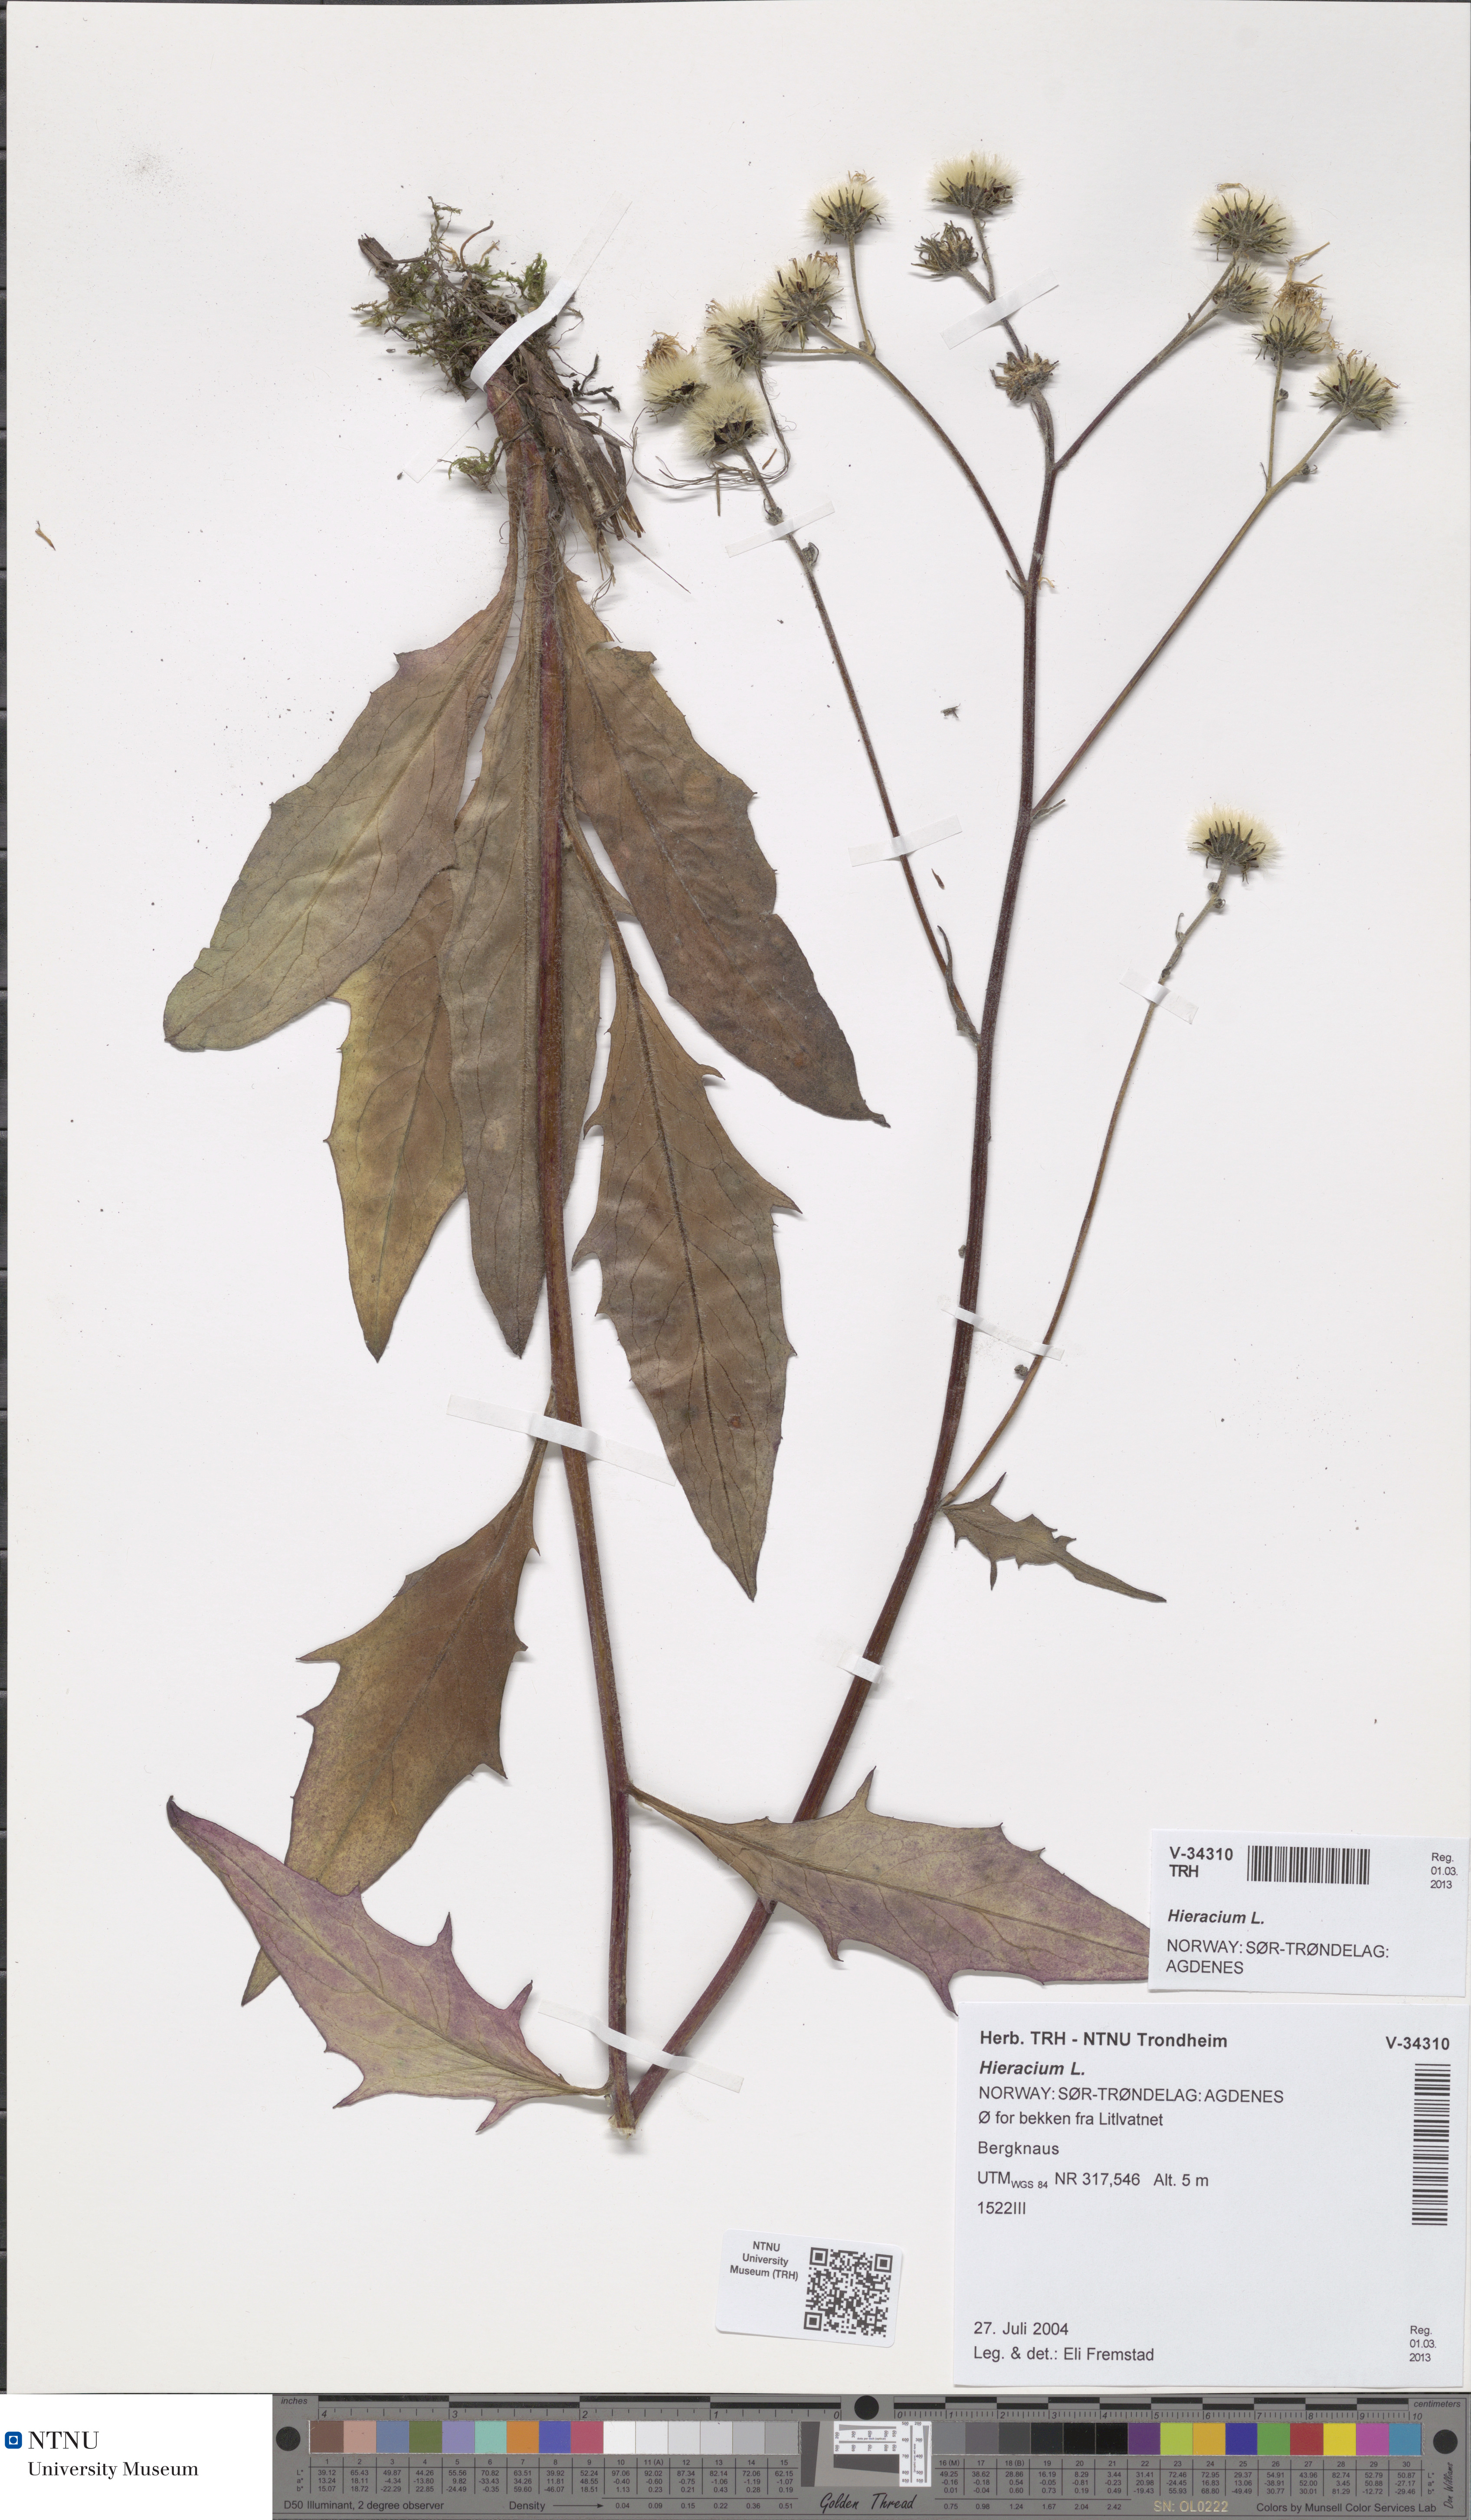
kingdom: Plantae
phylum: Tracheophyta
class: Magnoliopsida
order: Asterales
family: Asteraceae
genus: Hieracium
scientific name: Hieracium
